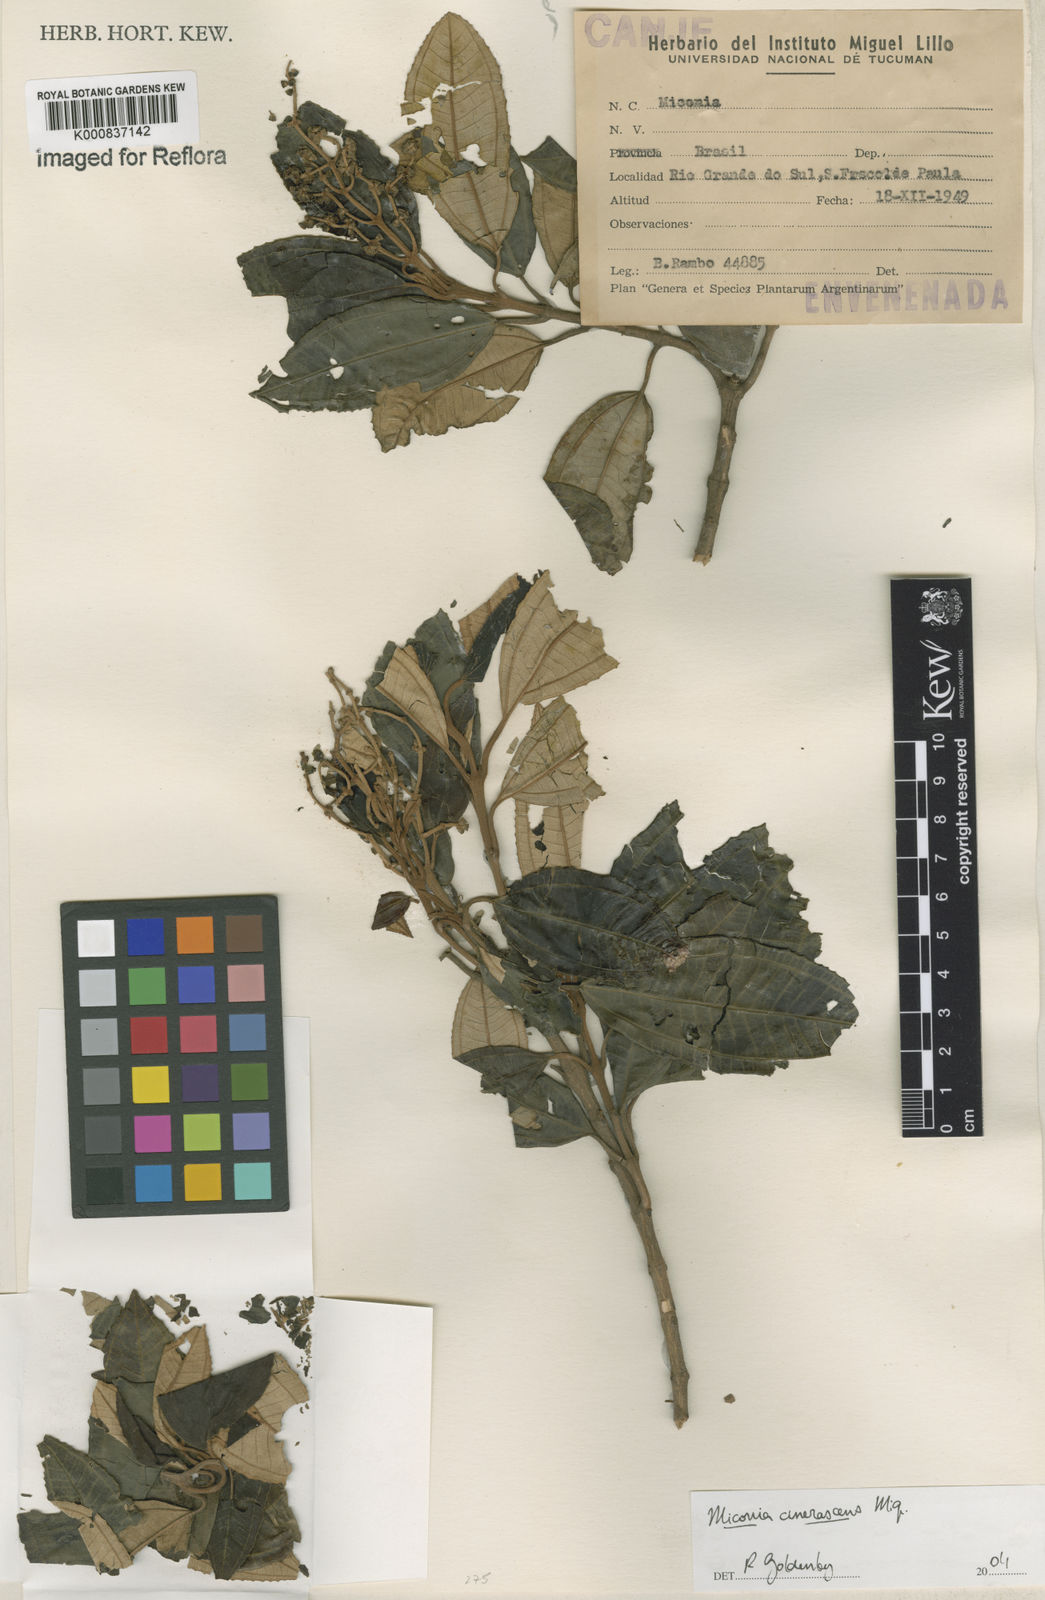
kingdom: Plantae
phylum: Tracheophyta
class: Magnoliopsida
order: Myrtales
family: Melastomataceae
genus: Miconia
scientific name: Miconia cinerascens
